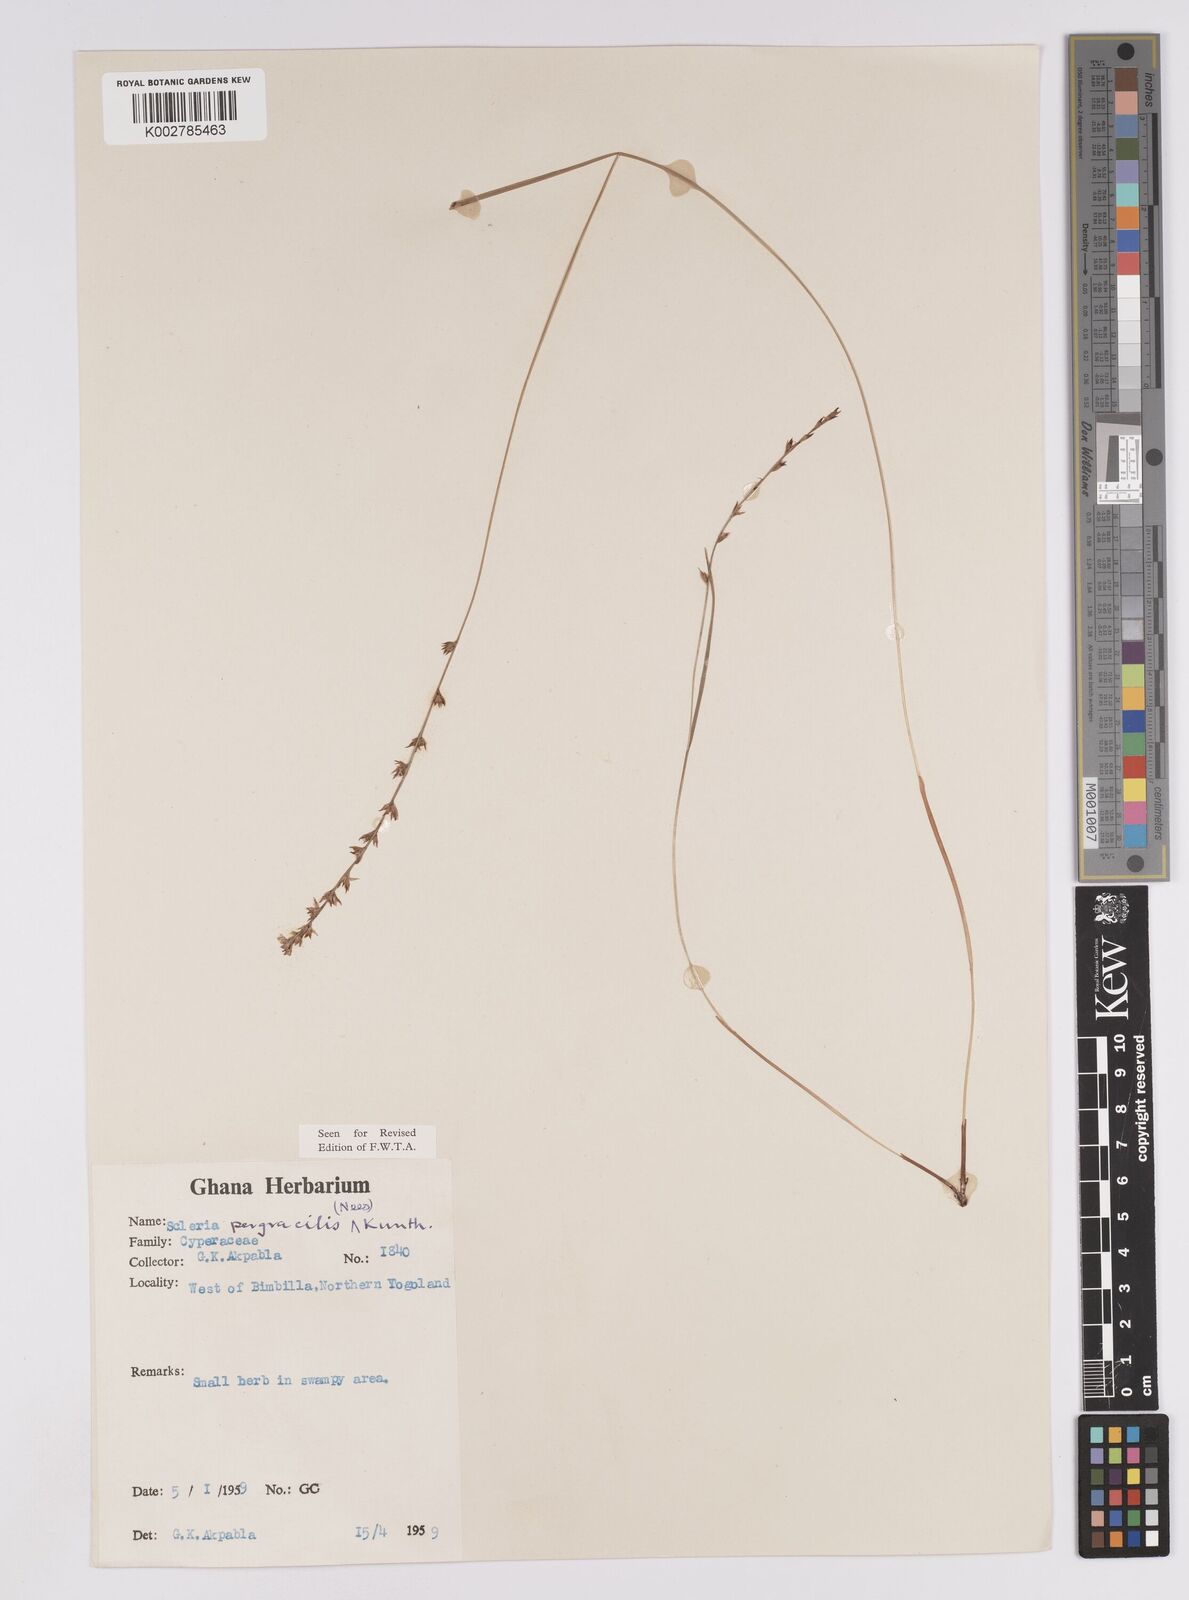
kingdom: Plantae
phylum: Tracheophyta
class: Liliopsida
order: Poales
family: Cyperaceae
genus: Scleria
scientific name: Scleria pergracilis
